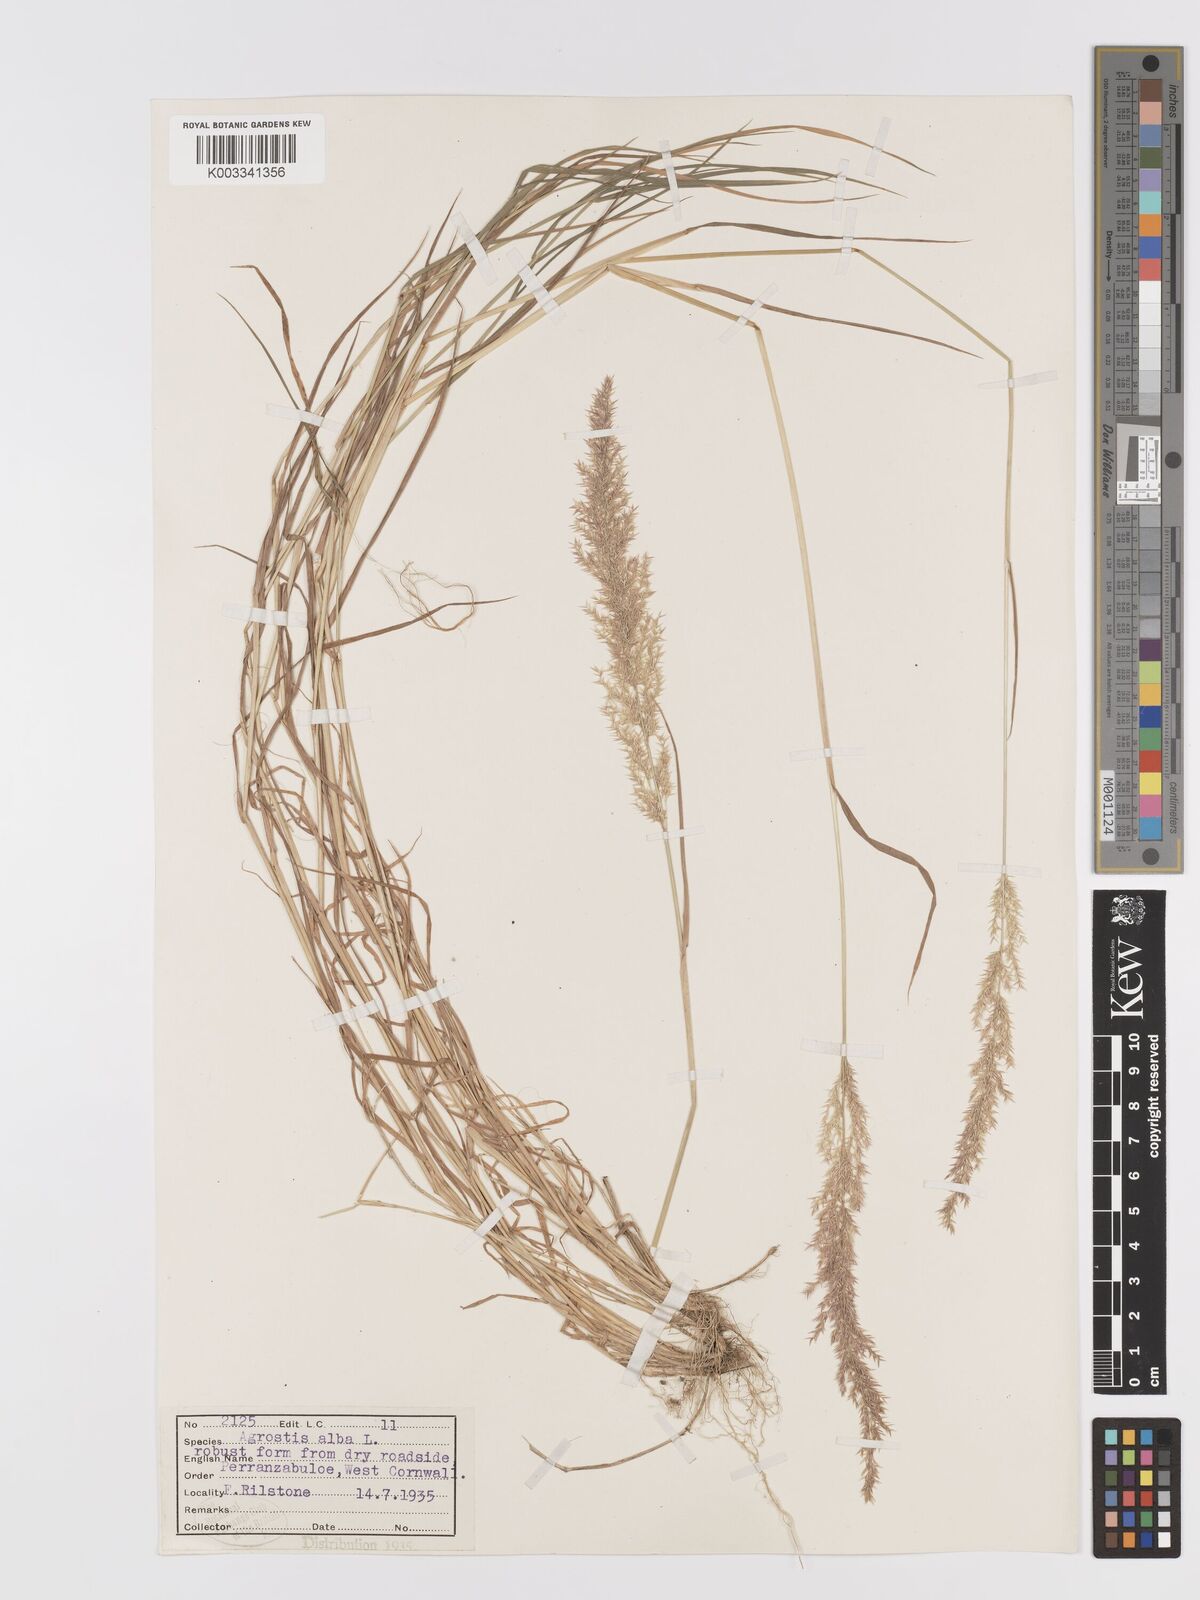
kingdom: Plantae
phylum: Tracheophyta
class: Liliopsida
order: Poales
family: Poaceae
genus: Agrostis
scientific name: Agrostis stolonifera
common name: Creeping bentgrass
